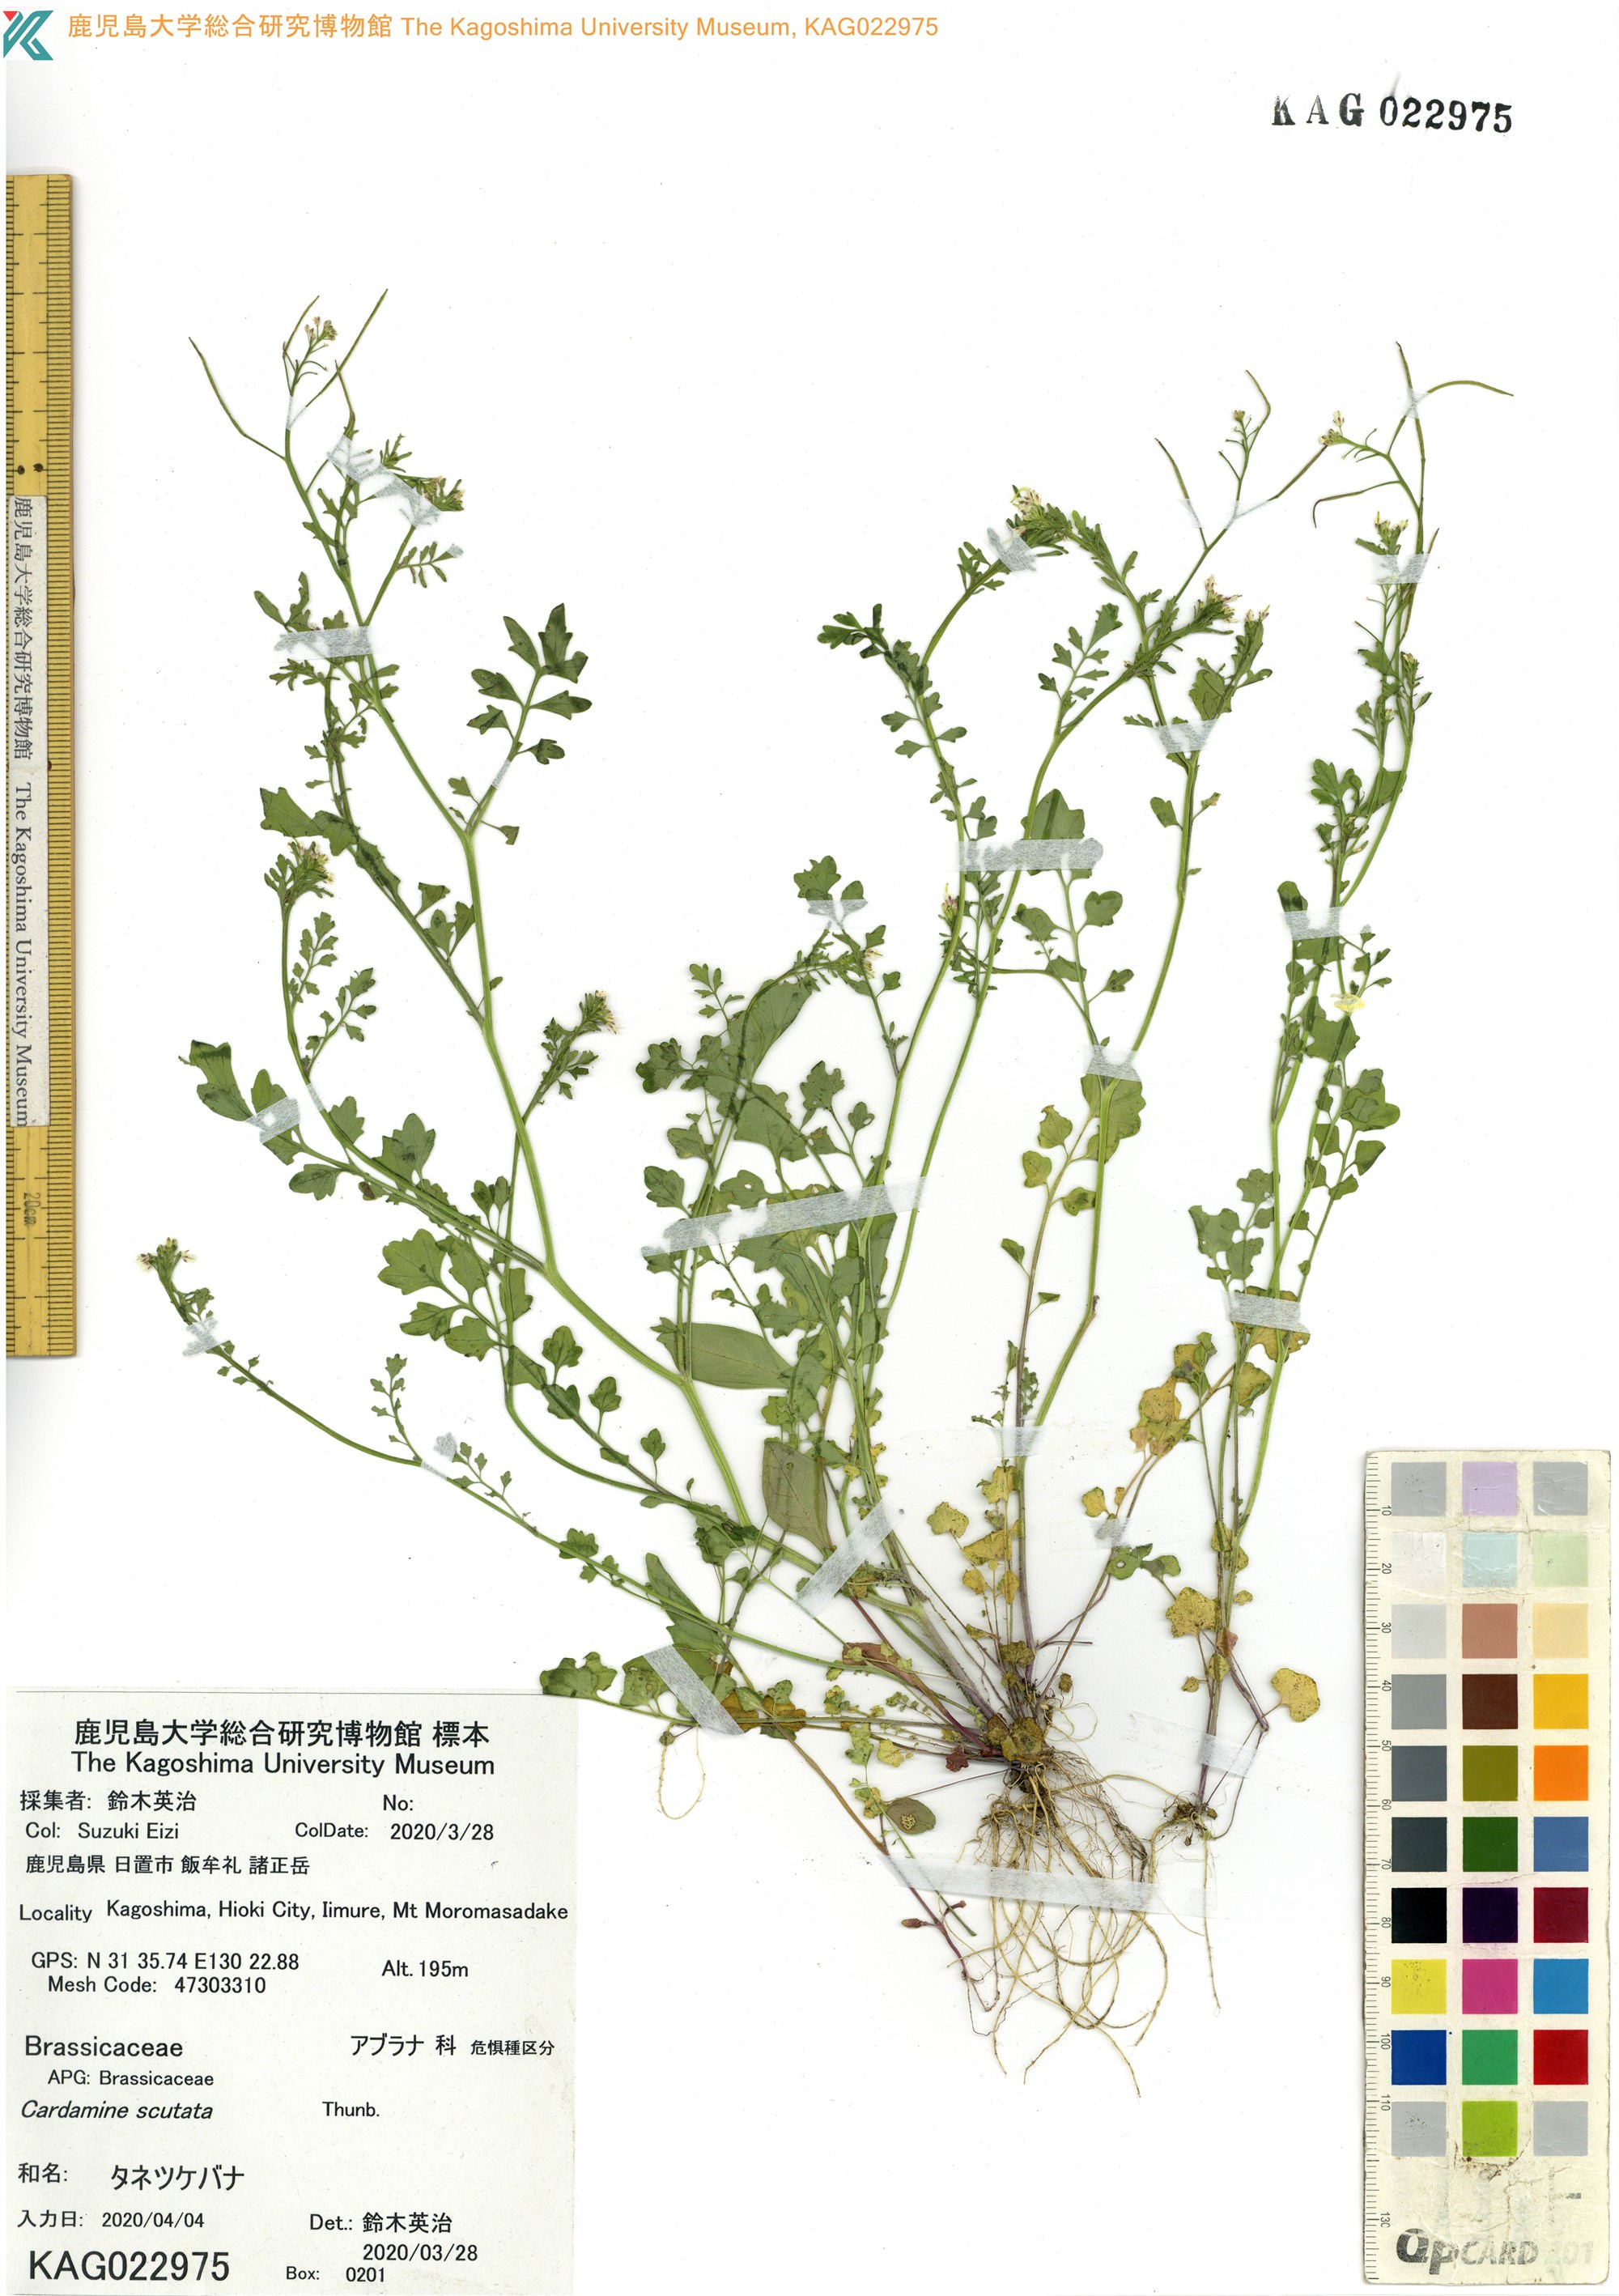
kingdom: Plantae
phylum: Tracheophyta
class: Magnoliopsida
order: Brassicales
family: Brassicaceae
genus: Cardamine
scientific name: Cardamine occulta
